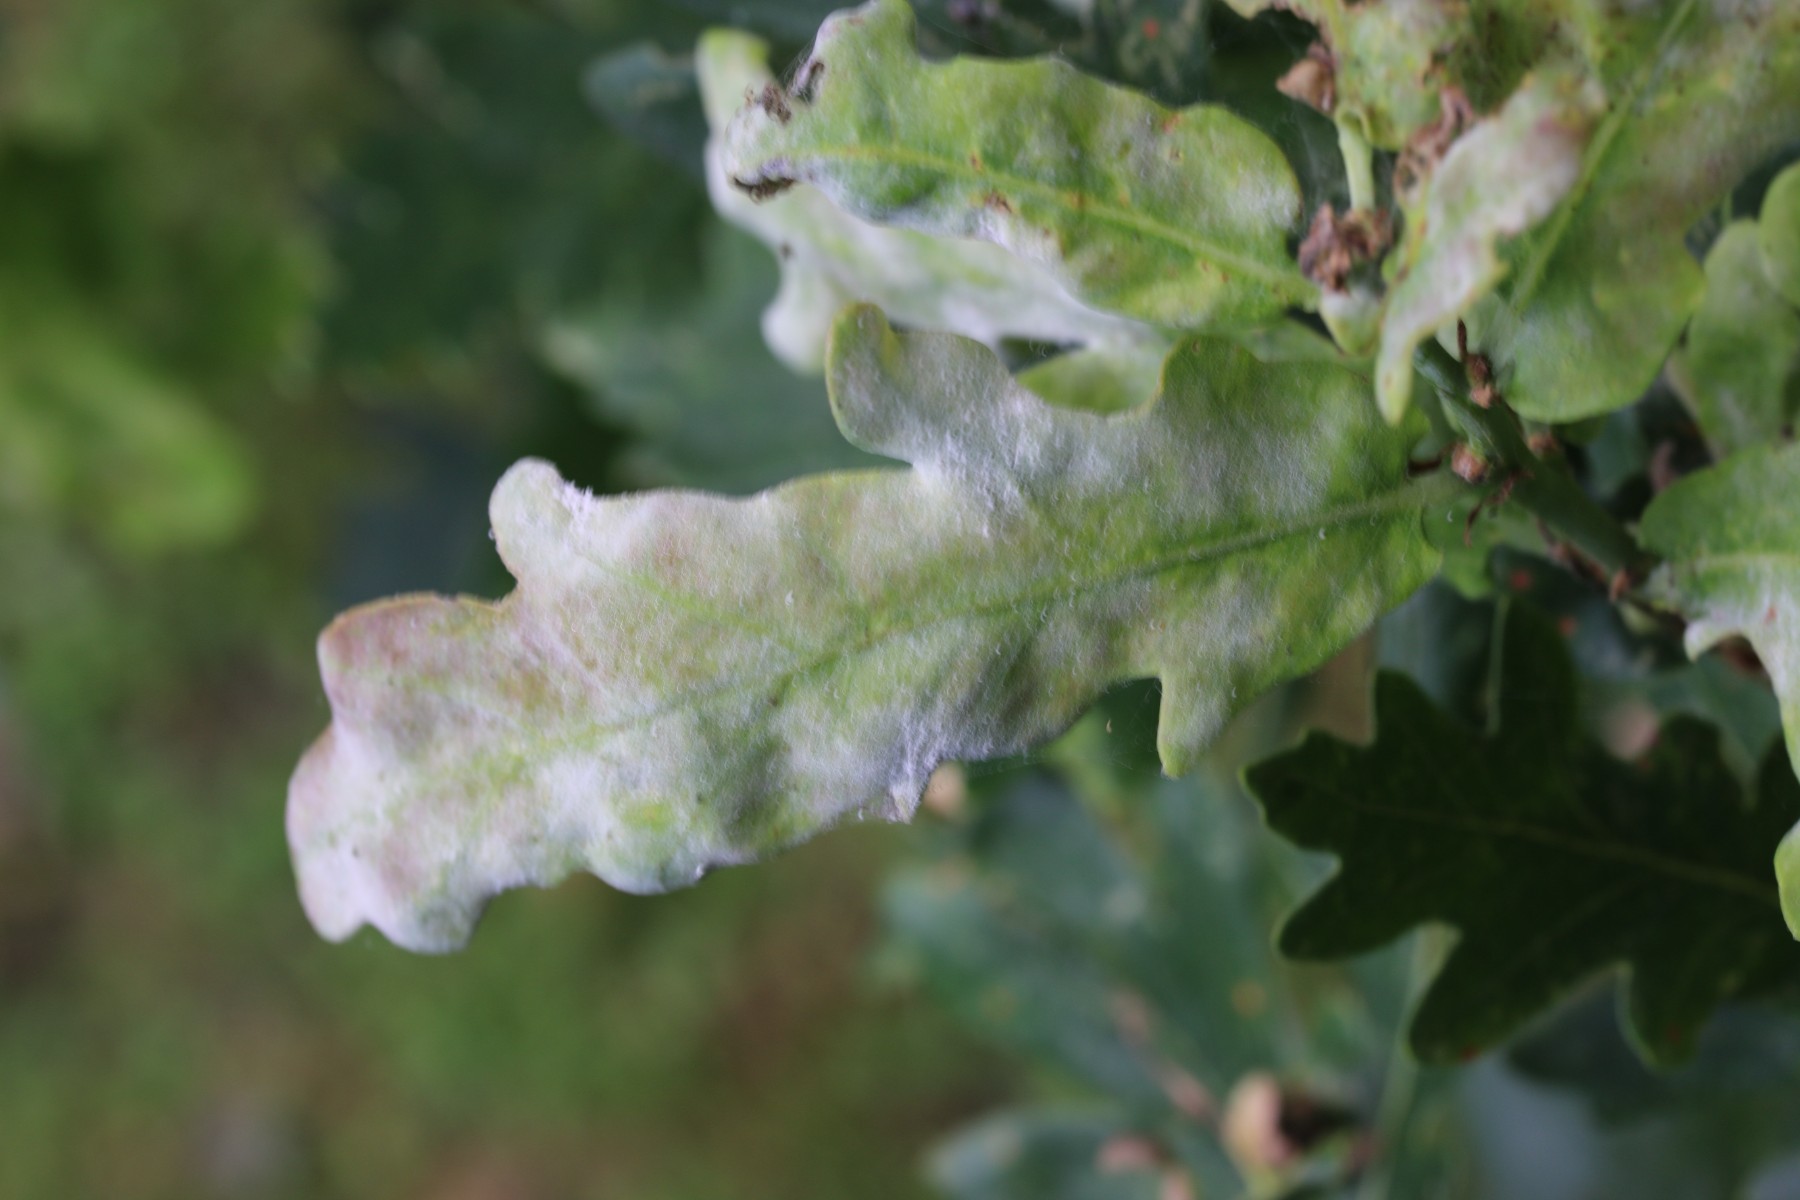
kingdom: Fungi
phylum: Ascomycota
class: Leotiomycetes
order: Helotiales
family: Erysiphaceae
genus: Erysiphe
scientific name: Erysiphe alphitoides
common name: ege-meldug
